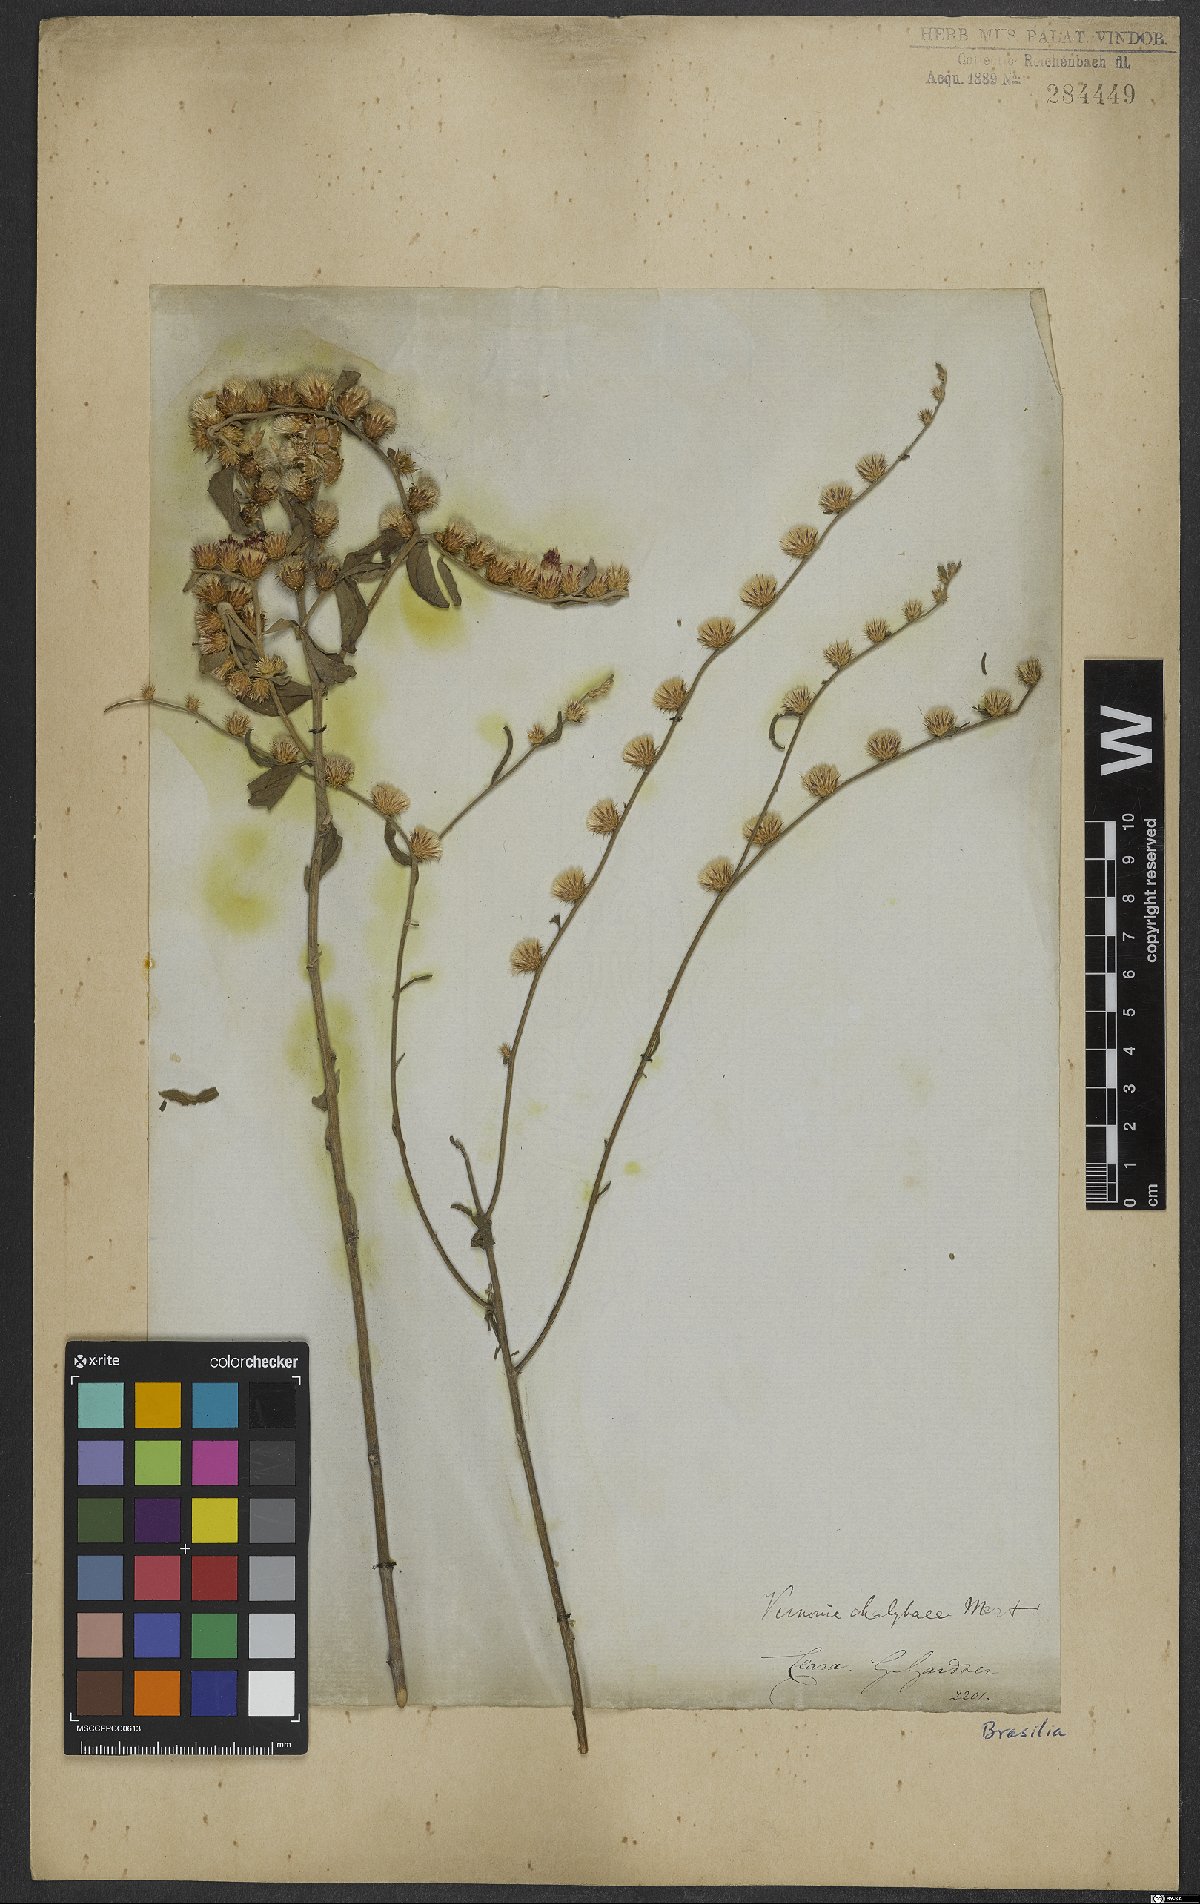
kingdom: Plantae
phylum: Tracheophyta
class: Magnoliopsida
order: Asterales
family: Asteraceae
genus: Lepidaploa
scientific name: Lepidaploa chalybaea
